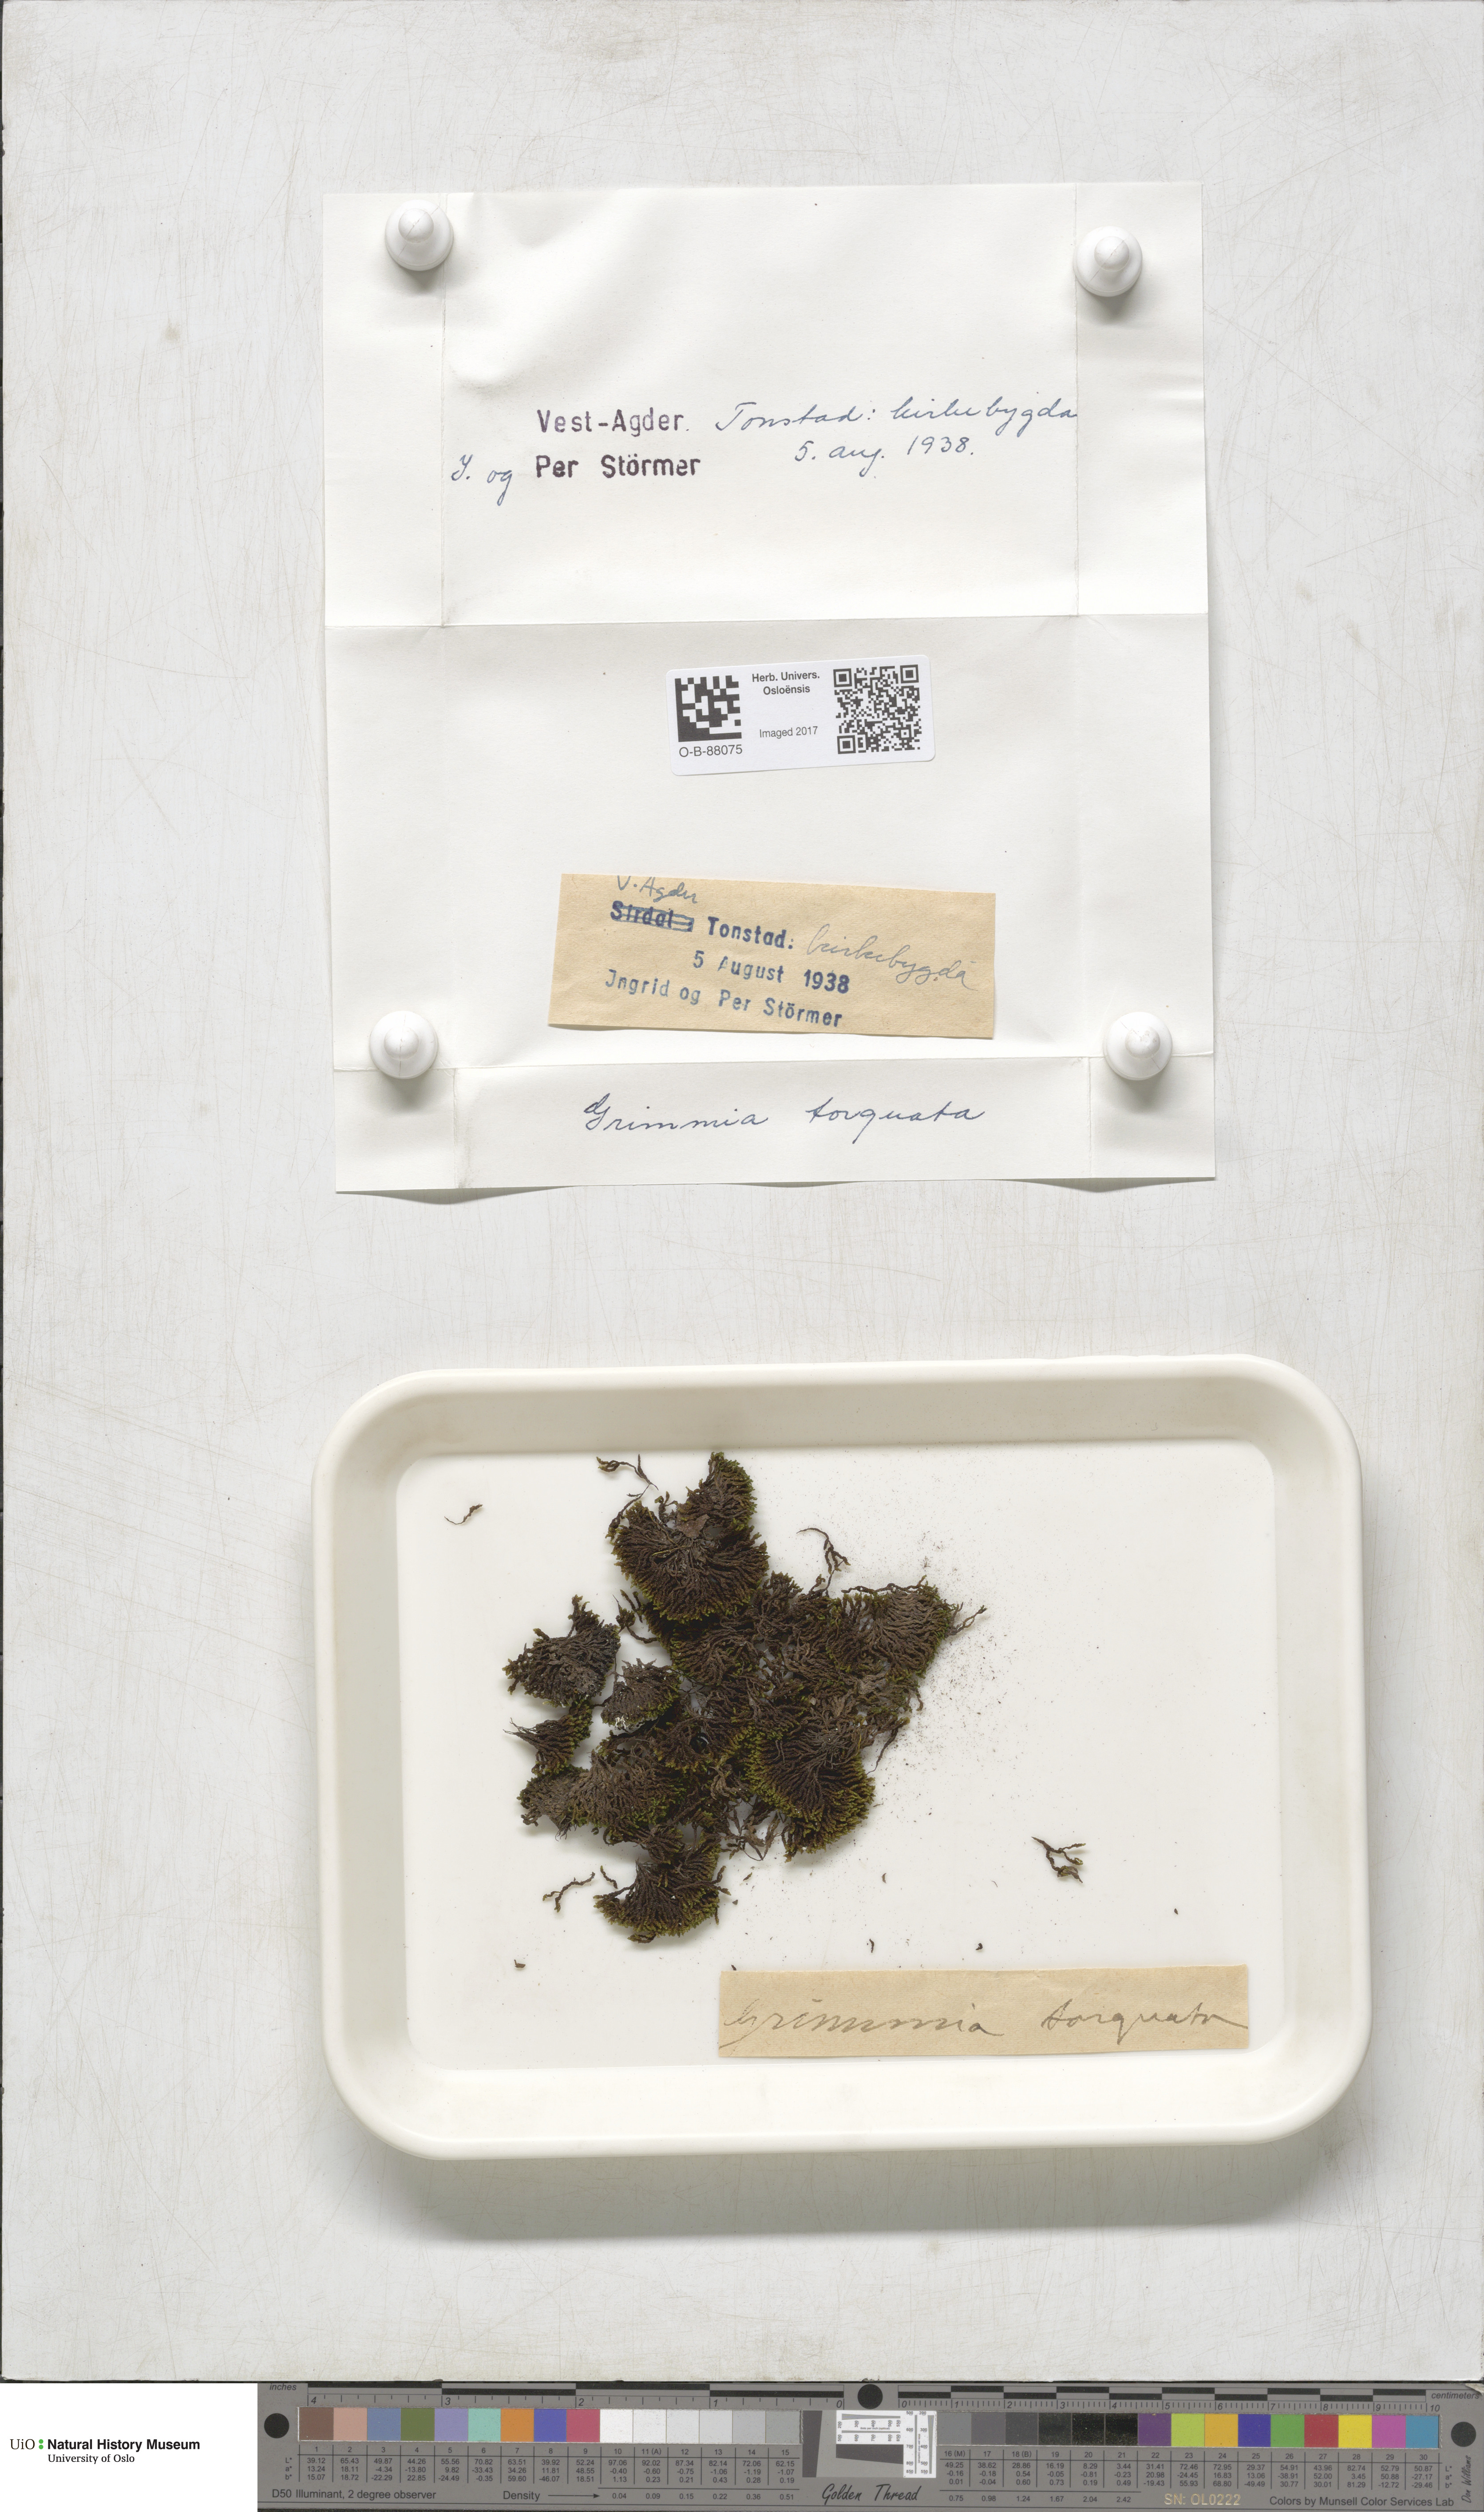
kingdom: Plantae
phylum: Bryophyta
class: Bryopsida
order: Grimmiales
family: Grimmiaceae
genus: Grimmia
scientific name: Grimmia torquata
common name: Twisted grimmia
